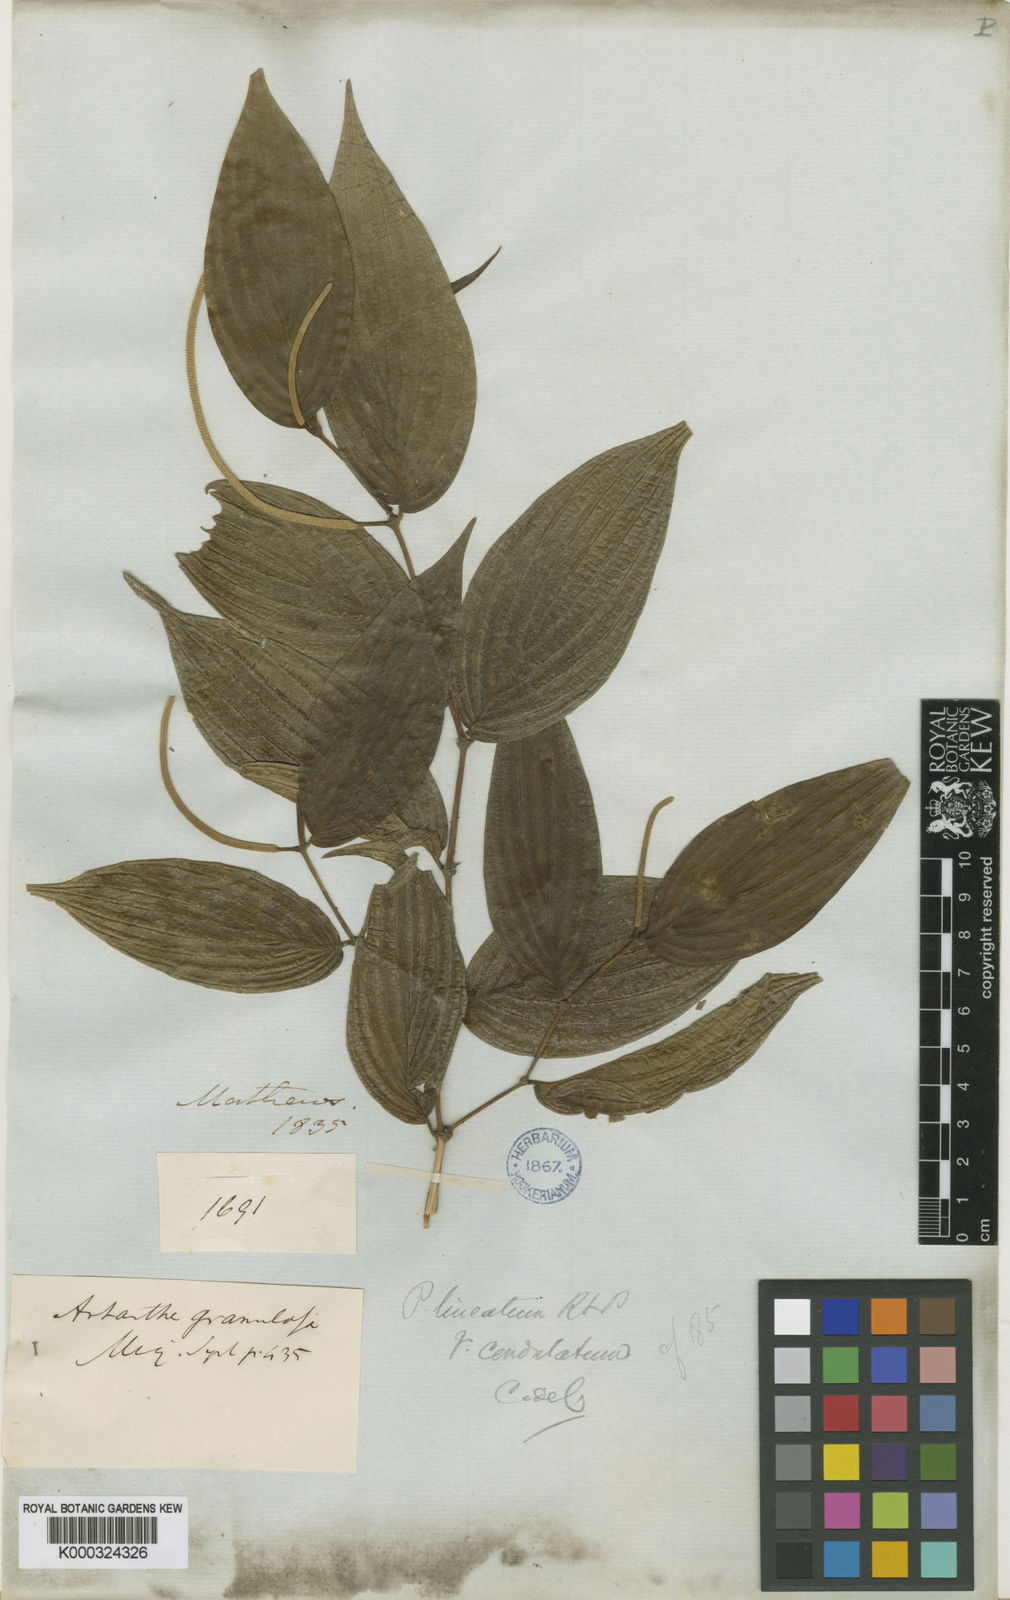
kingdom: Plantae
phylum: Tracheophyta
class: Magnoliopsida
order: Piperales
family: Piperaceae
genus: Piper
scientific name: Piper lineatum
